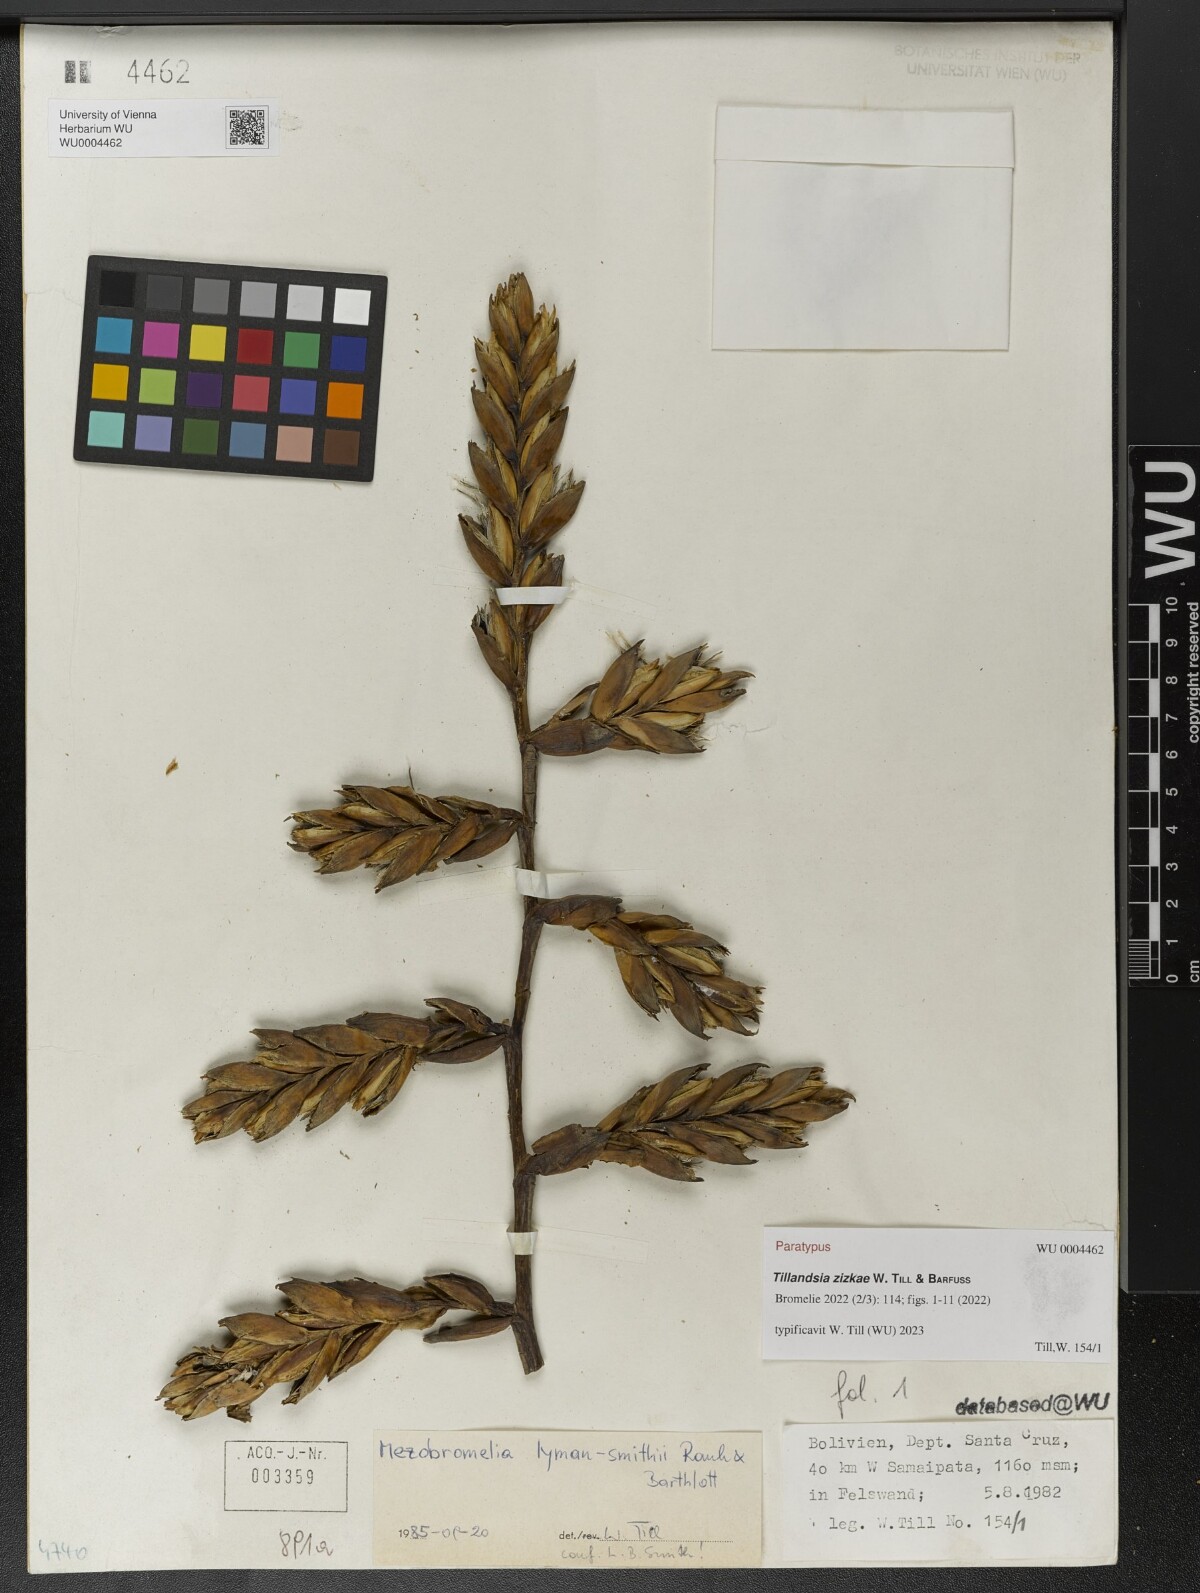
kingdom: Plantae
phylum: Tracheophyta
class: Liliopsida
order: Poales
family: Bromeliaceae
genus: Tillandsia
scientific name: Tillandsia
